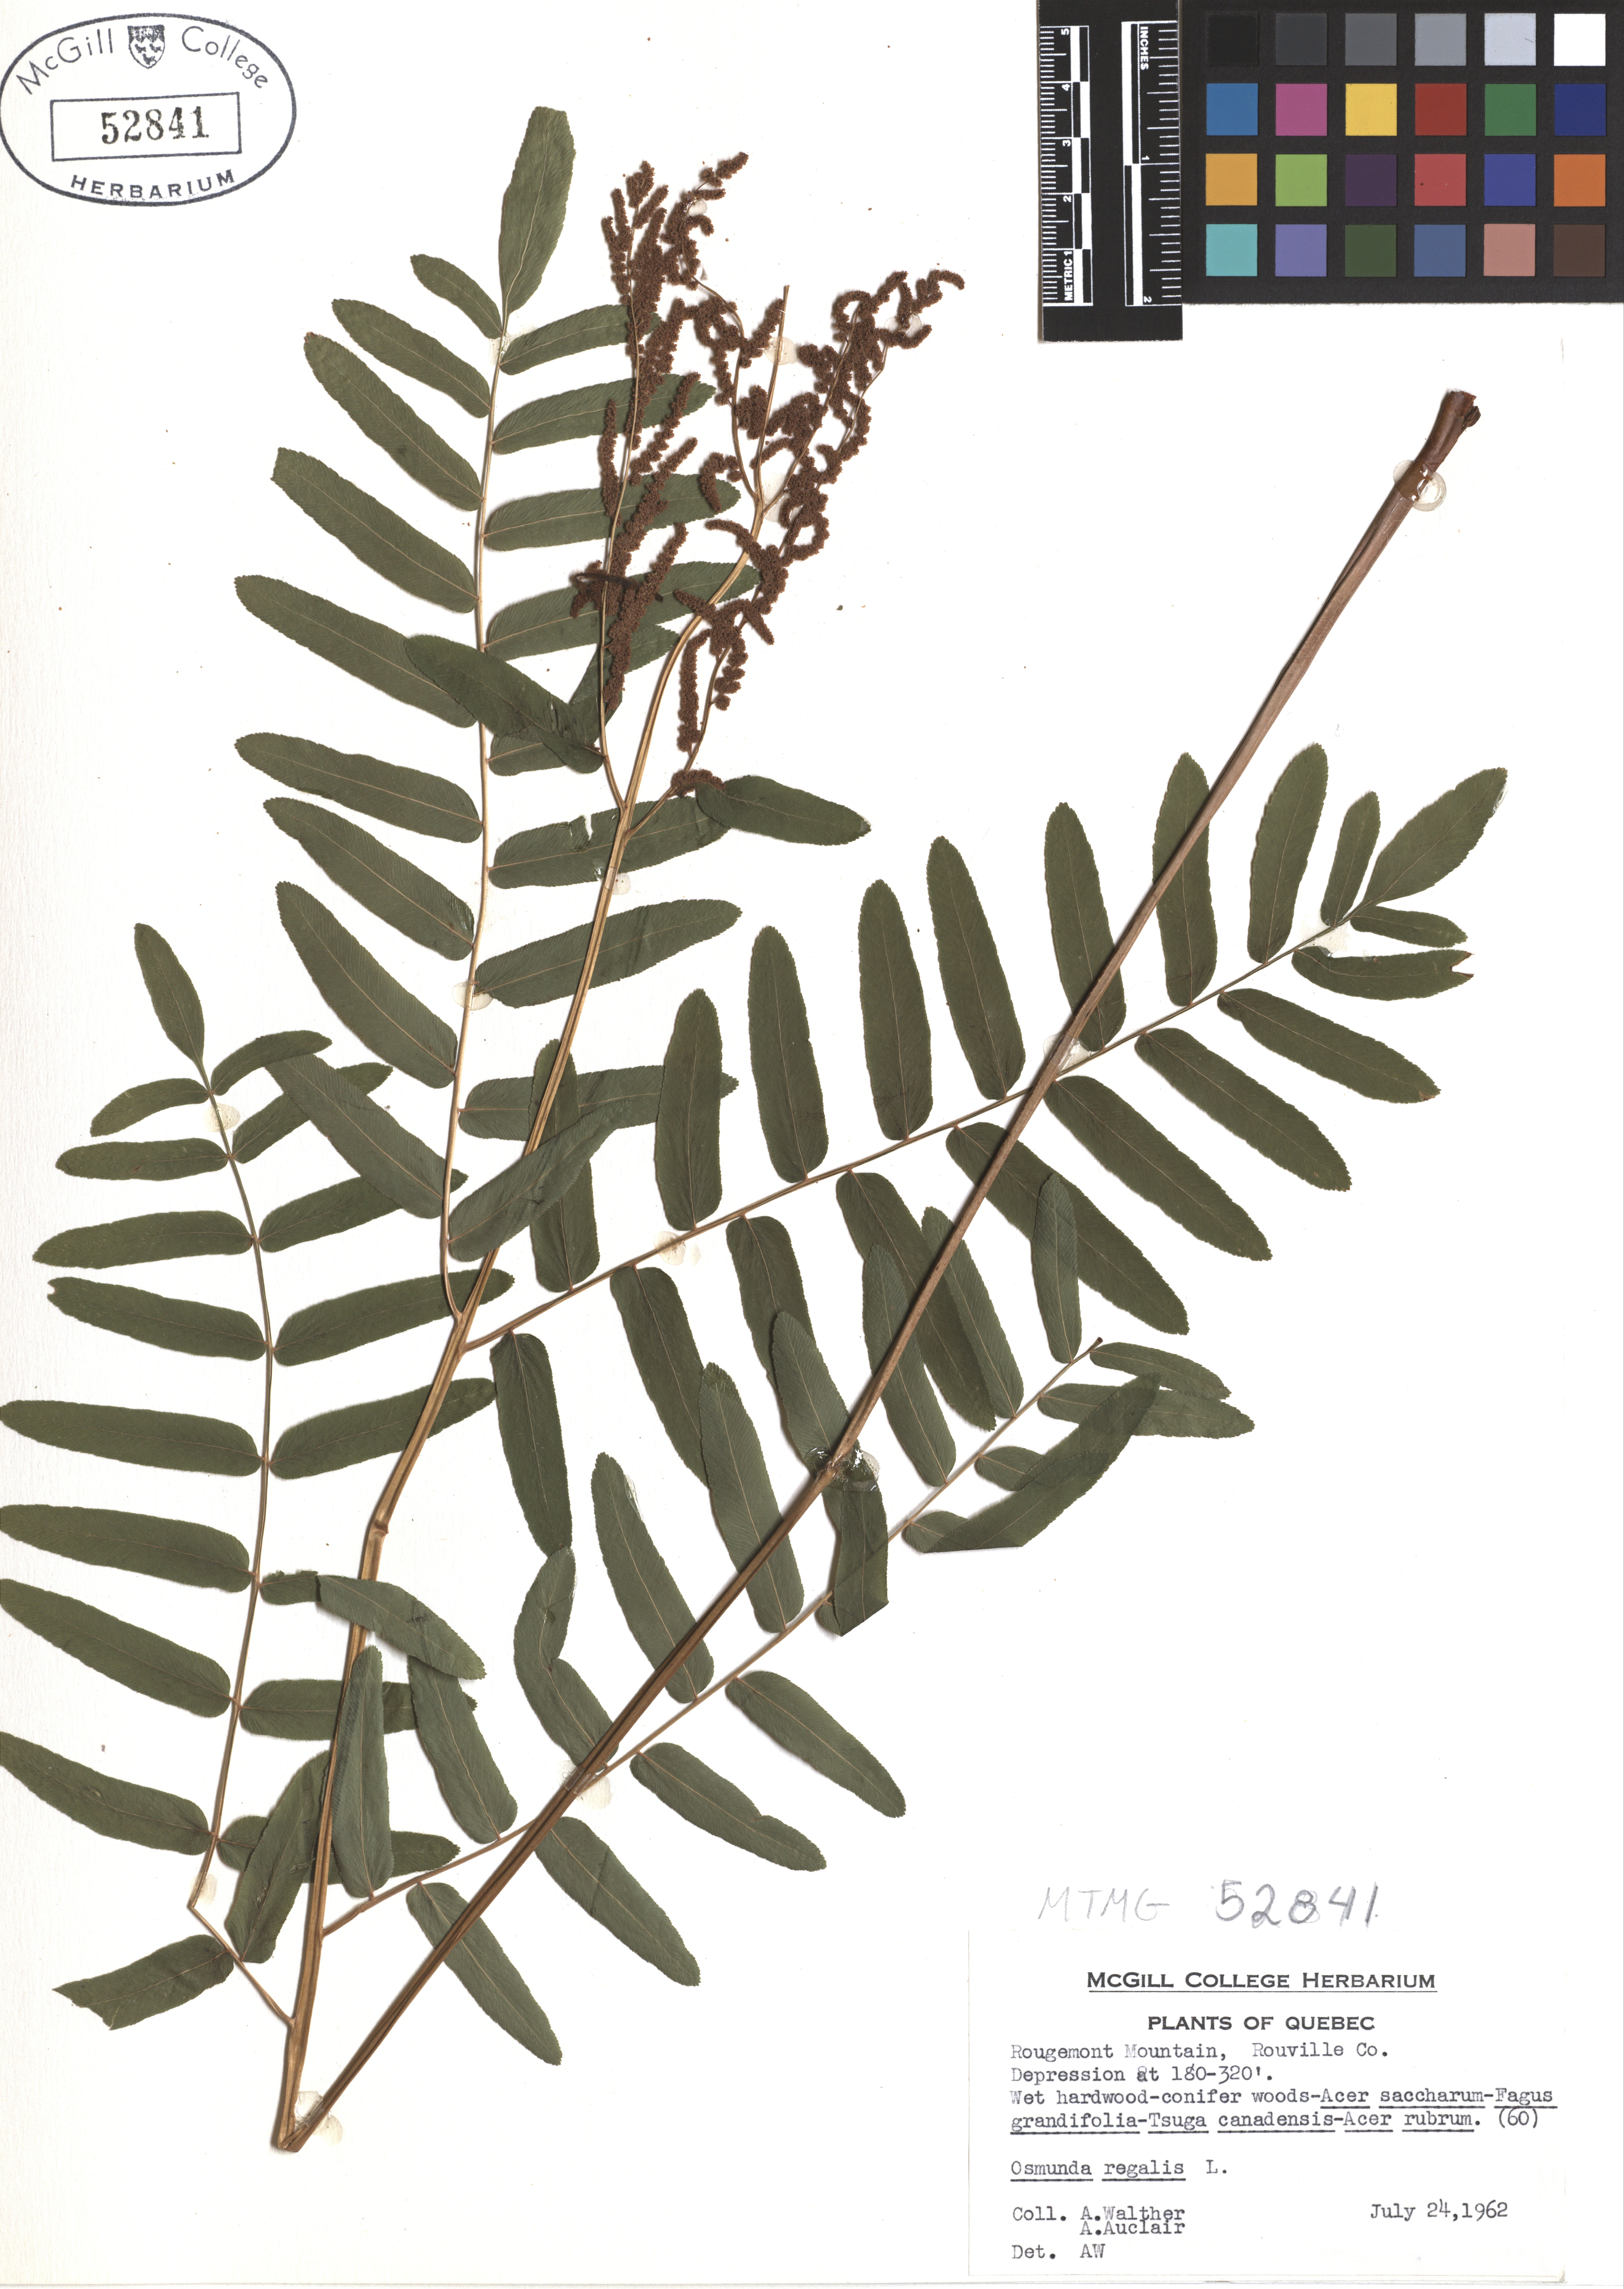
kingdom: Plantae
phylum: Tracheophyta
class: Polypodiopsida
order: Osmundales
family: Osmundaceae
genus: Osmunda
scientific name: Osmunda regalis
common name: Royal fern
